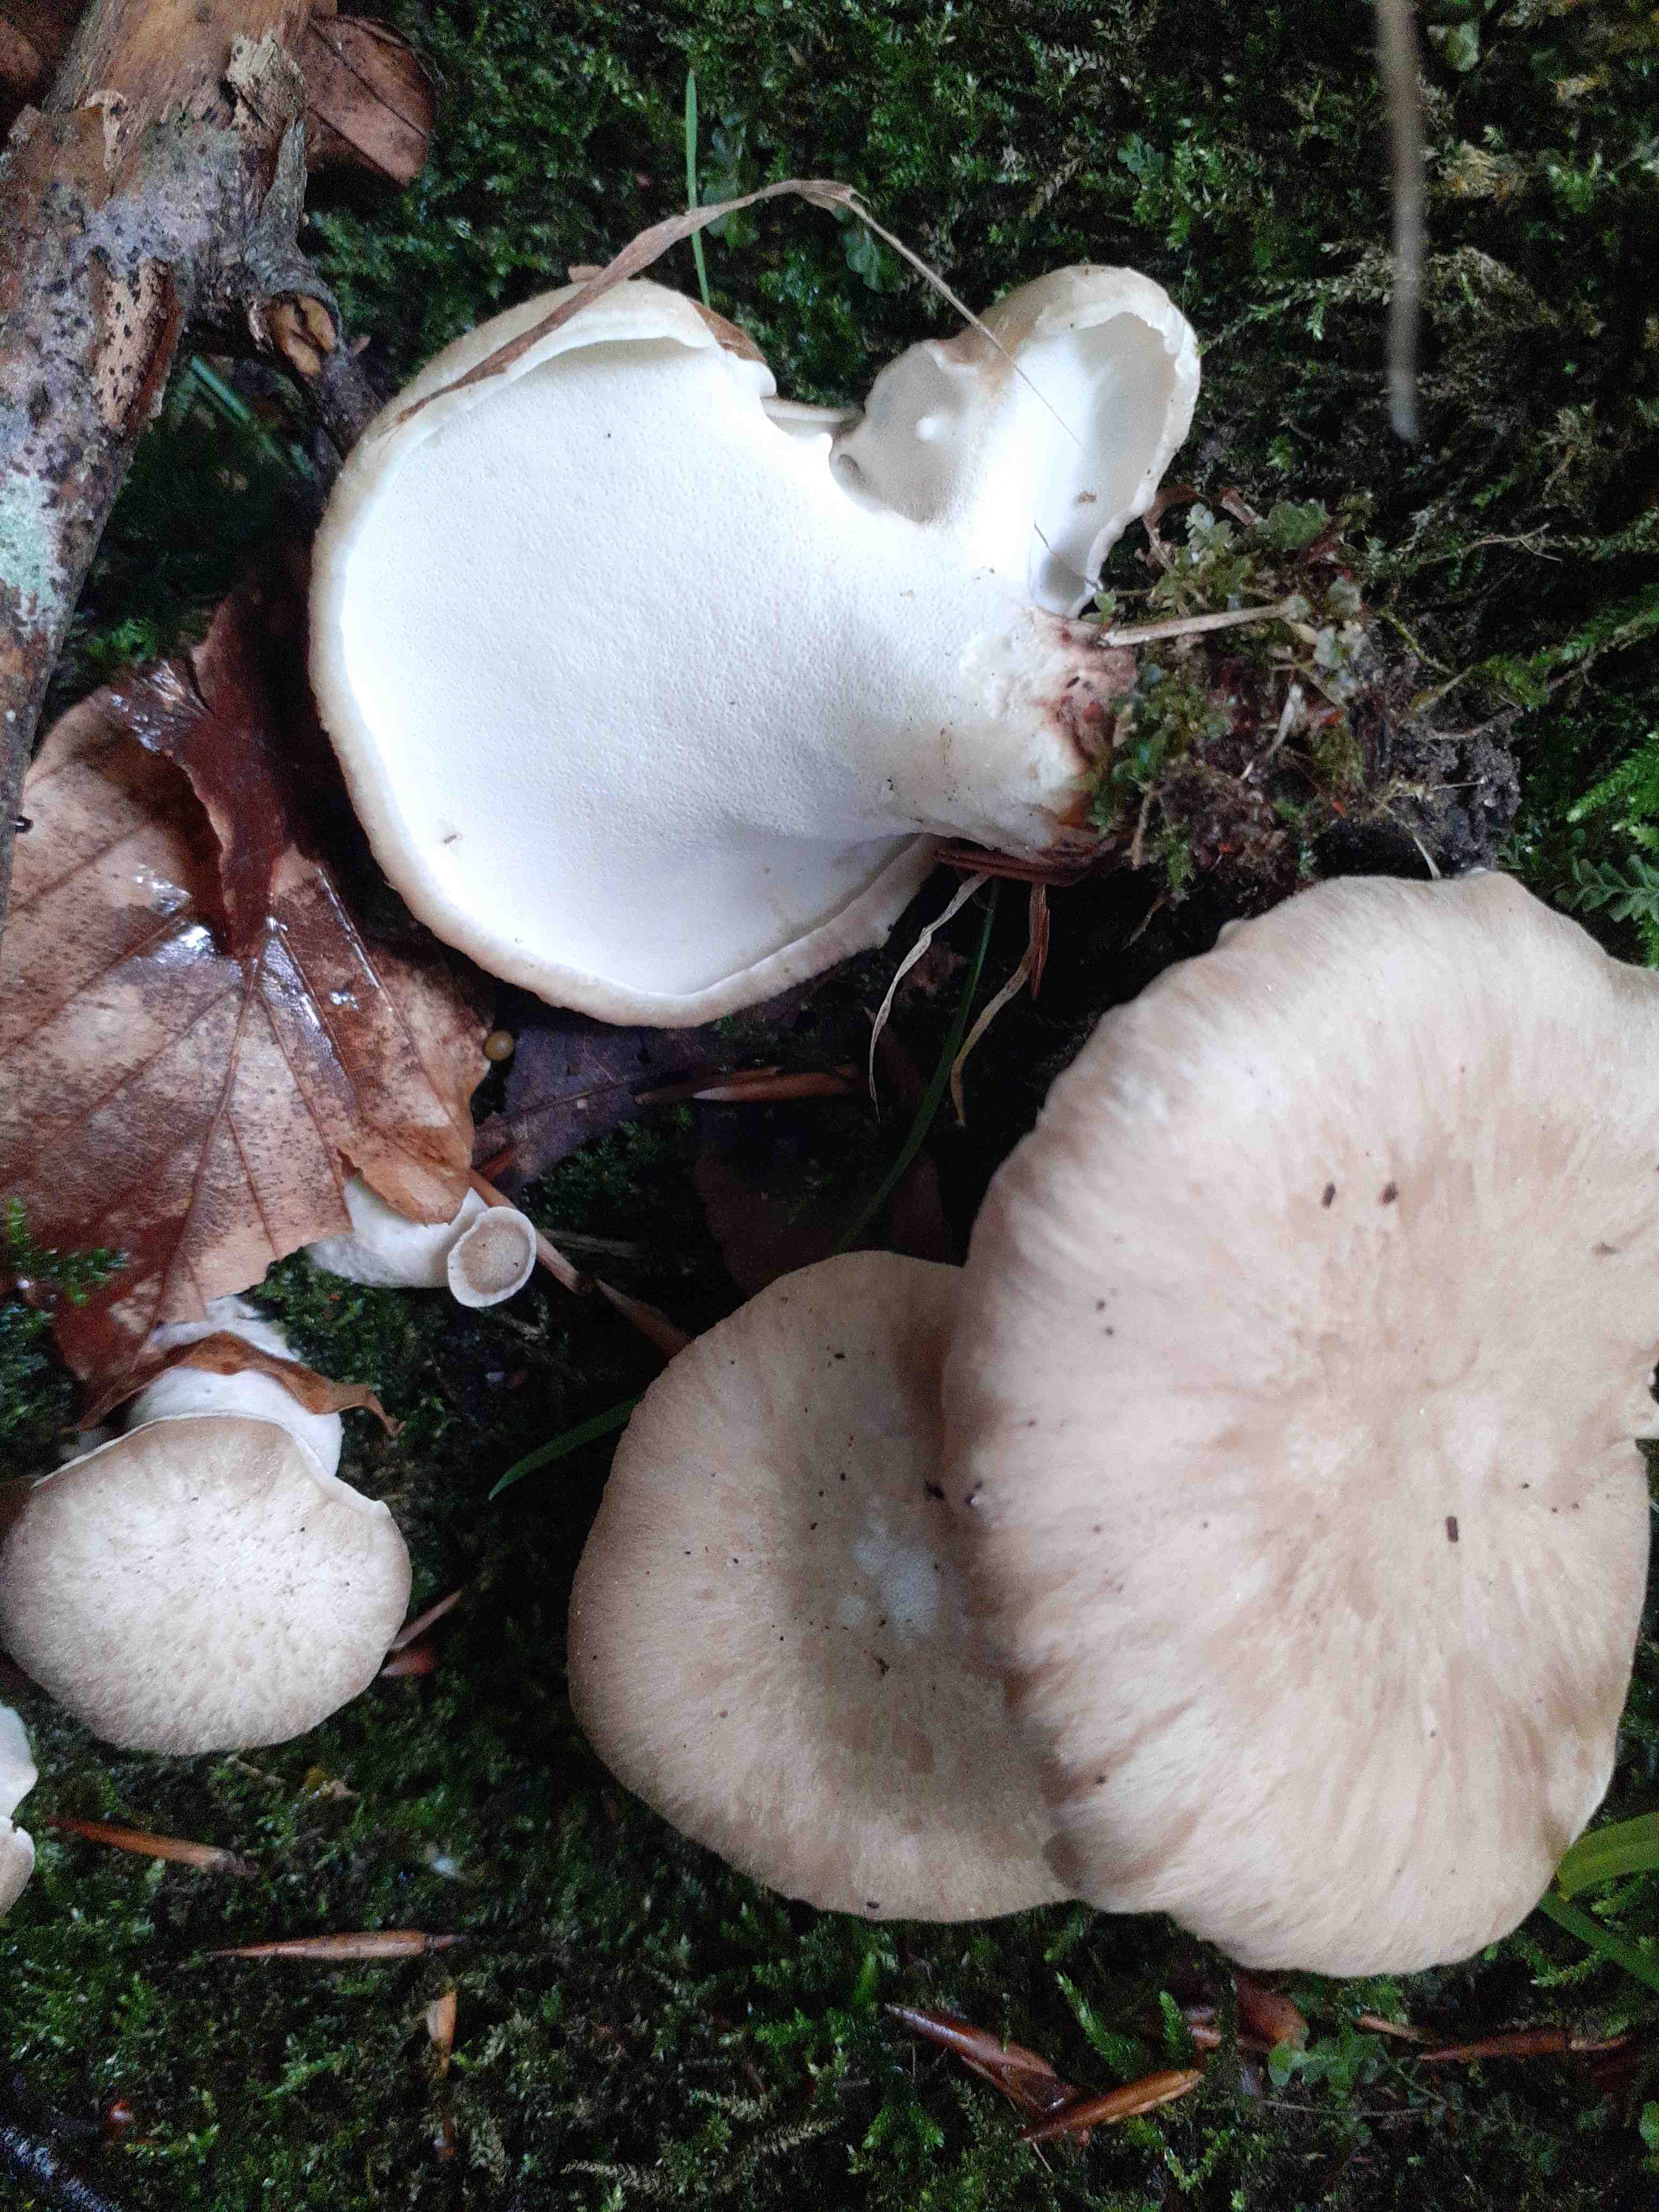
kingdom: Fungi
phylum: Basidiomycota
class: Agaricomycetes
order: Polyporales
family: Polyporaceae
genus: Picipes
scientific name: Picipes melanopus
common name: sortfodet stilkporesvamp
